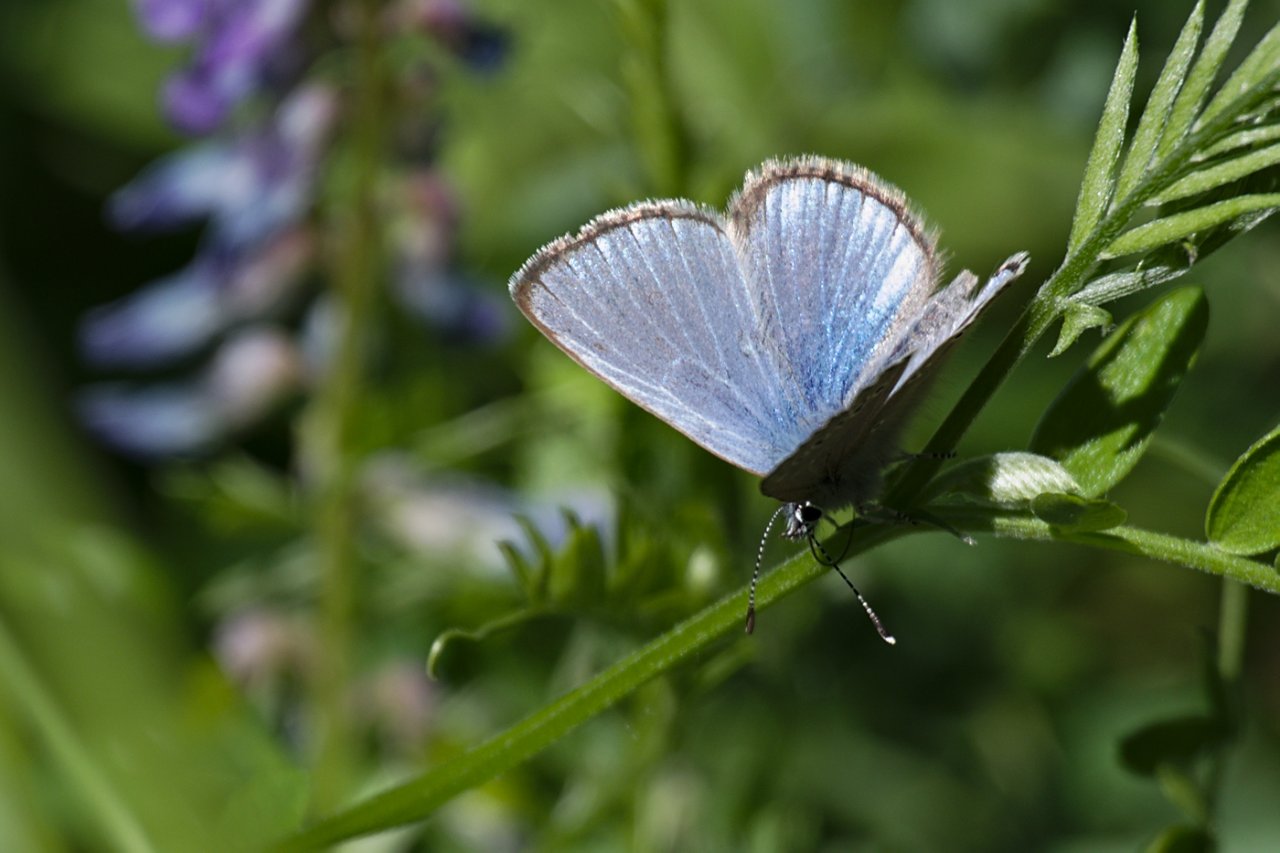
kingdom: Animalia
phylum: Arthropoda
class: Insecta
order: Lepidoptera
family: Lycaenidae
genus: Glaucopsyche
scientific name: Glaucopsyche lygdamus
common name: Silvery Blue
